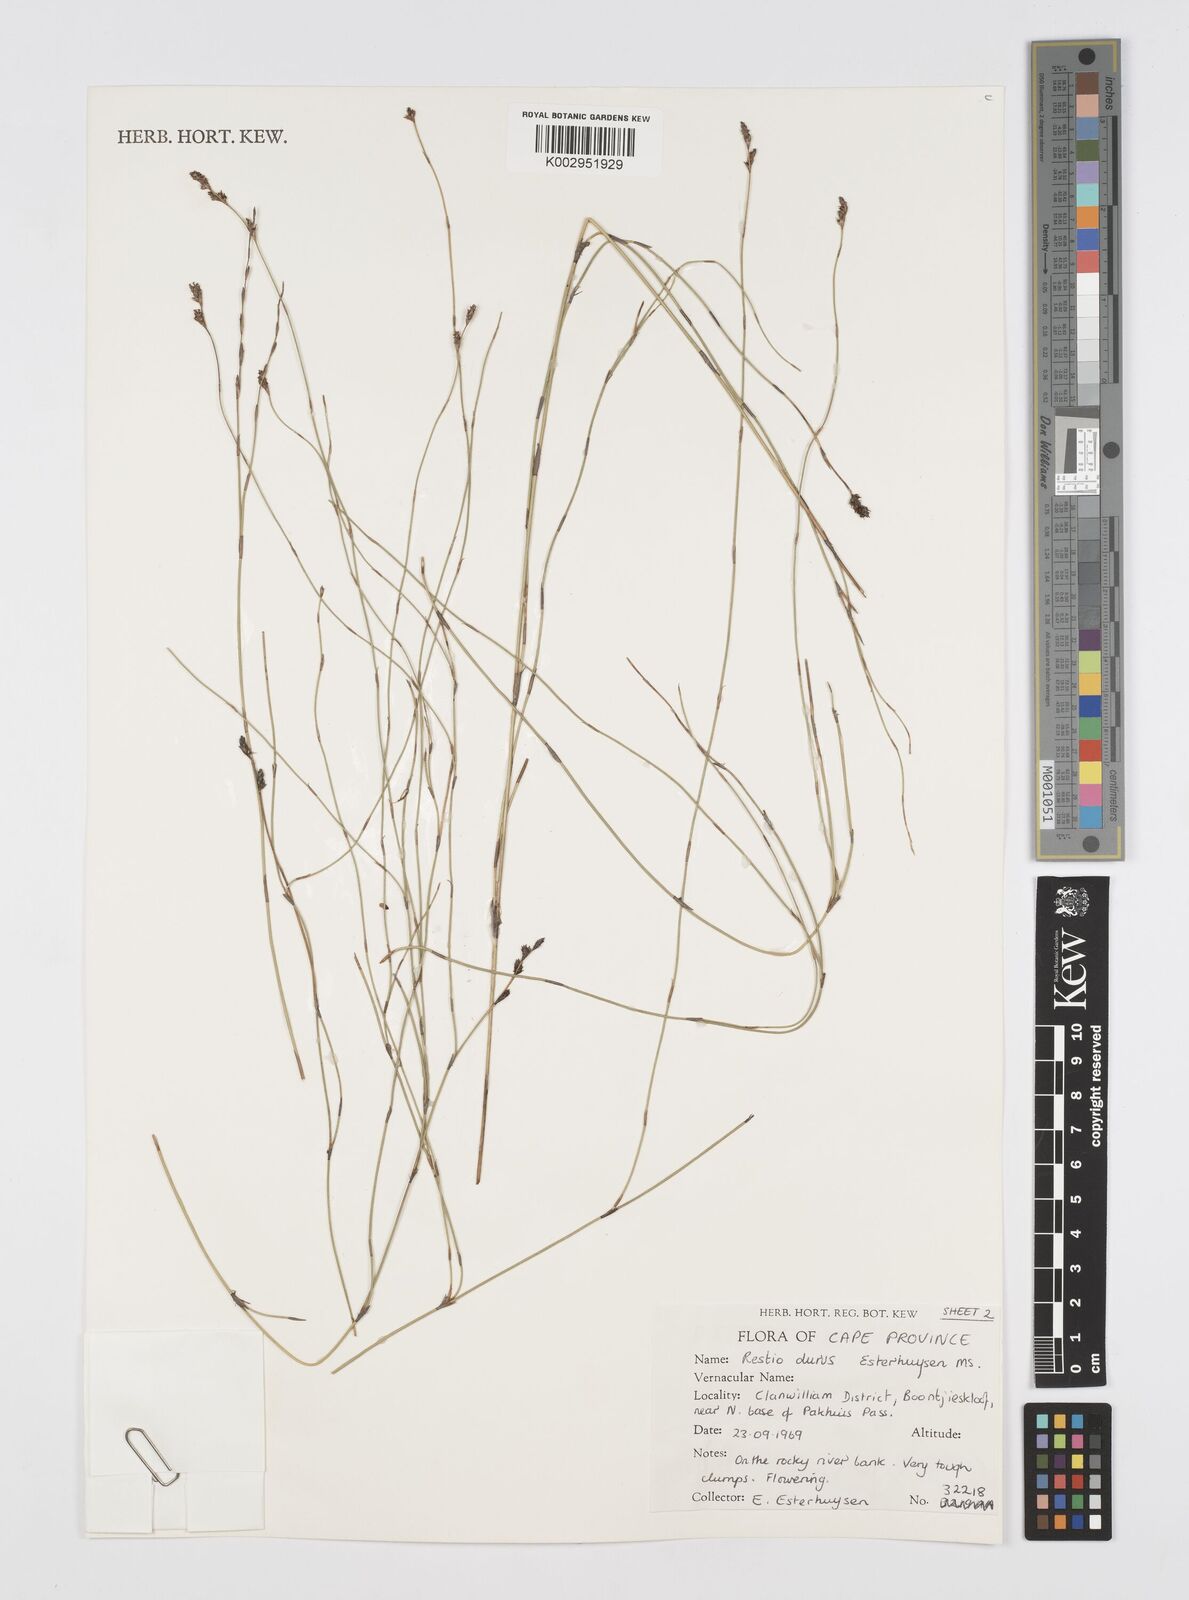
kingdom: Plantae
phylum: Tracheophyta
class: Liliopsida
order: Poales
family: Restionaceae
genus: Restio
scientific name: Restio durus
